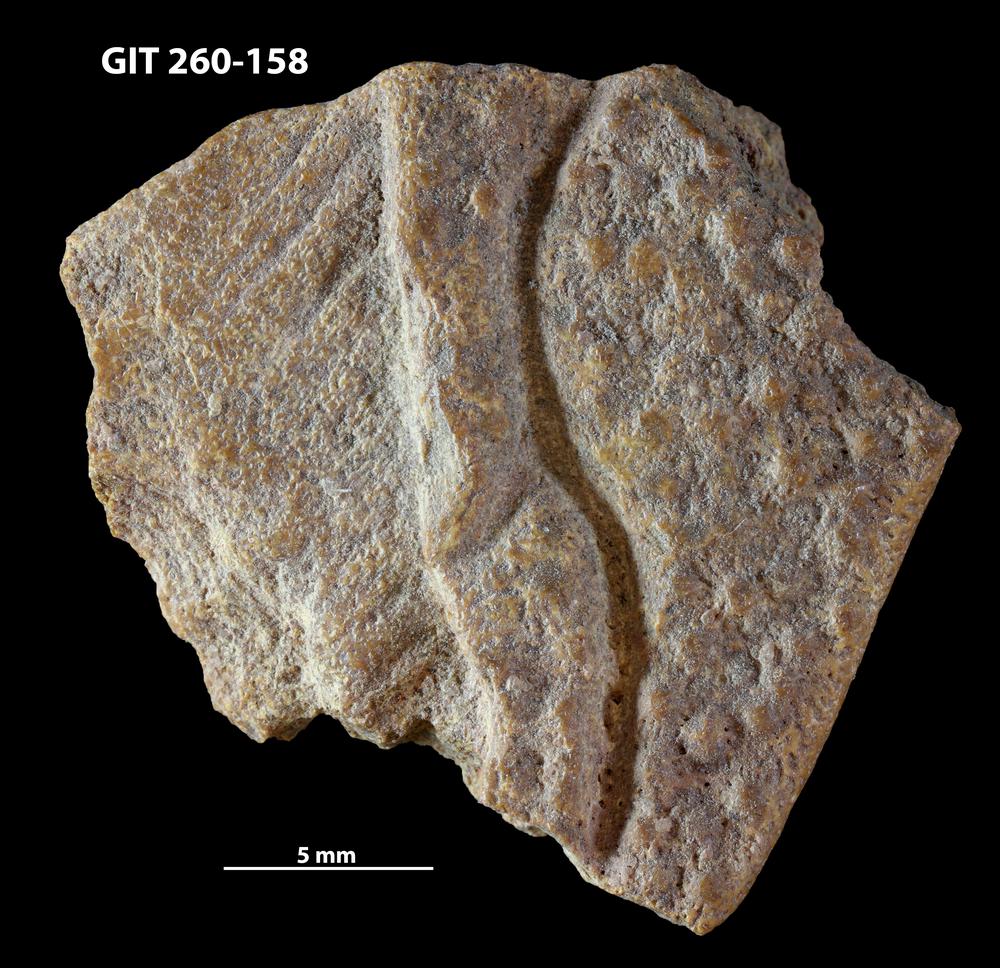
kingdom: Animalia
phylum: Chordata
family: Homostiidae
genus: Homostius
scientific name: Homostius
